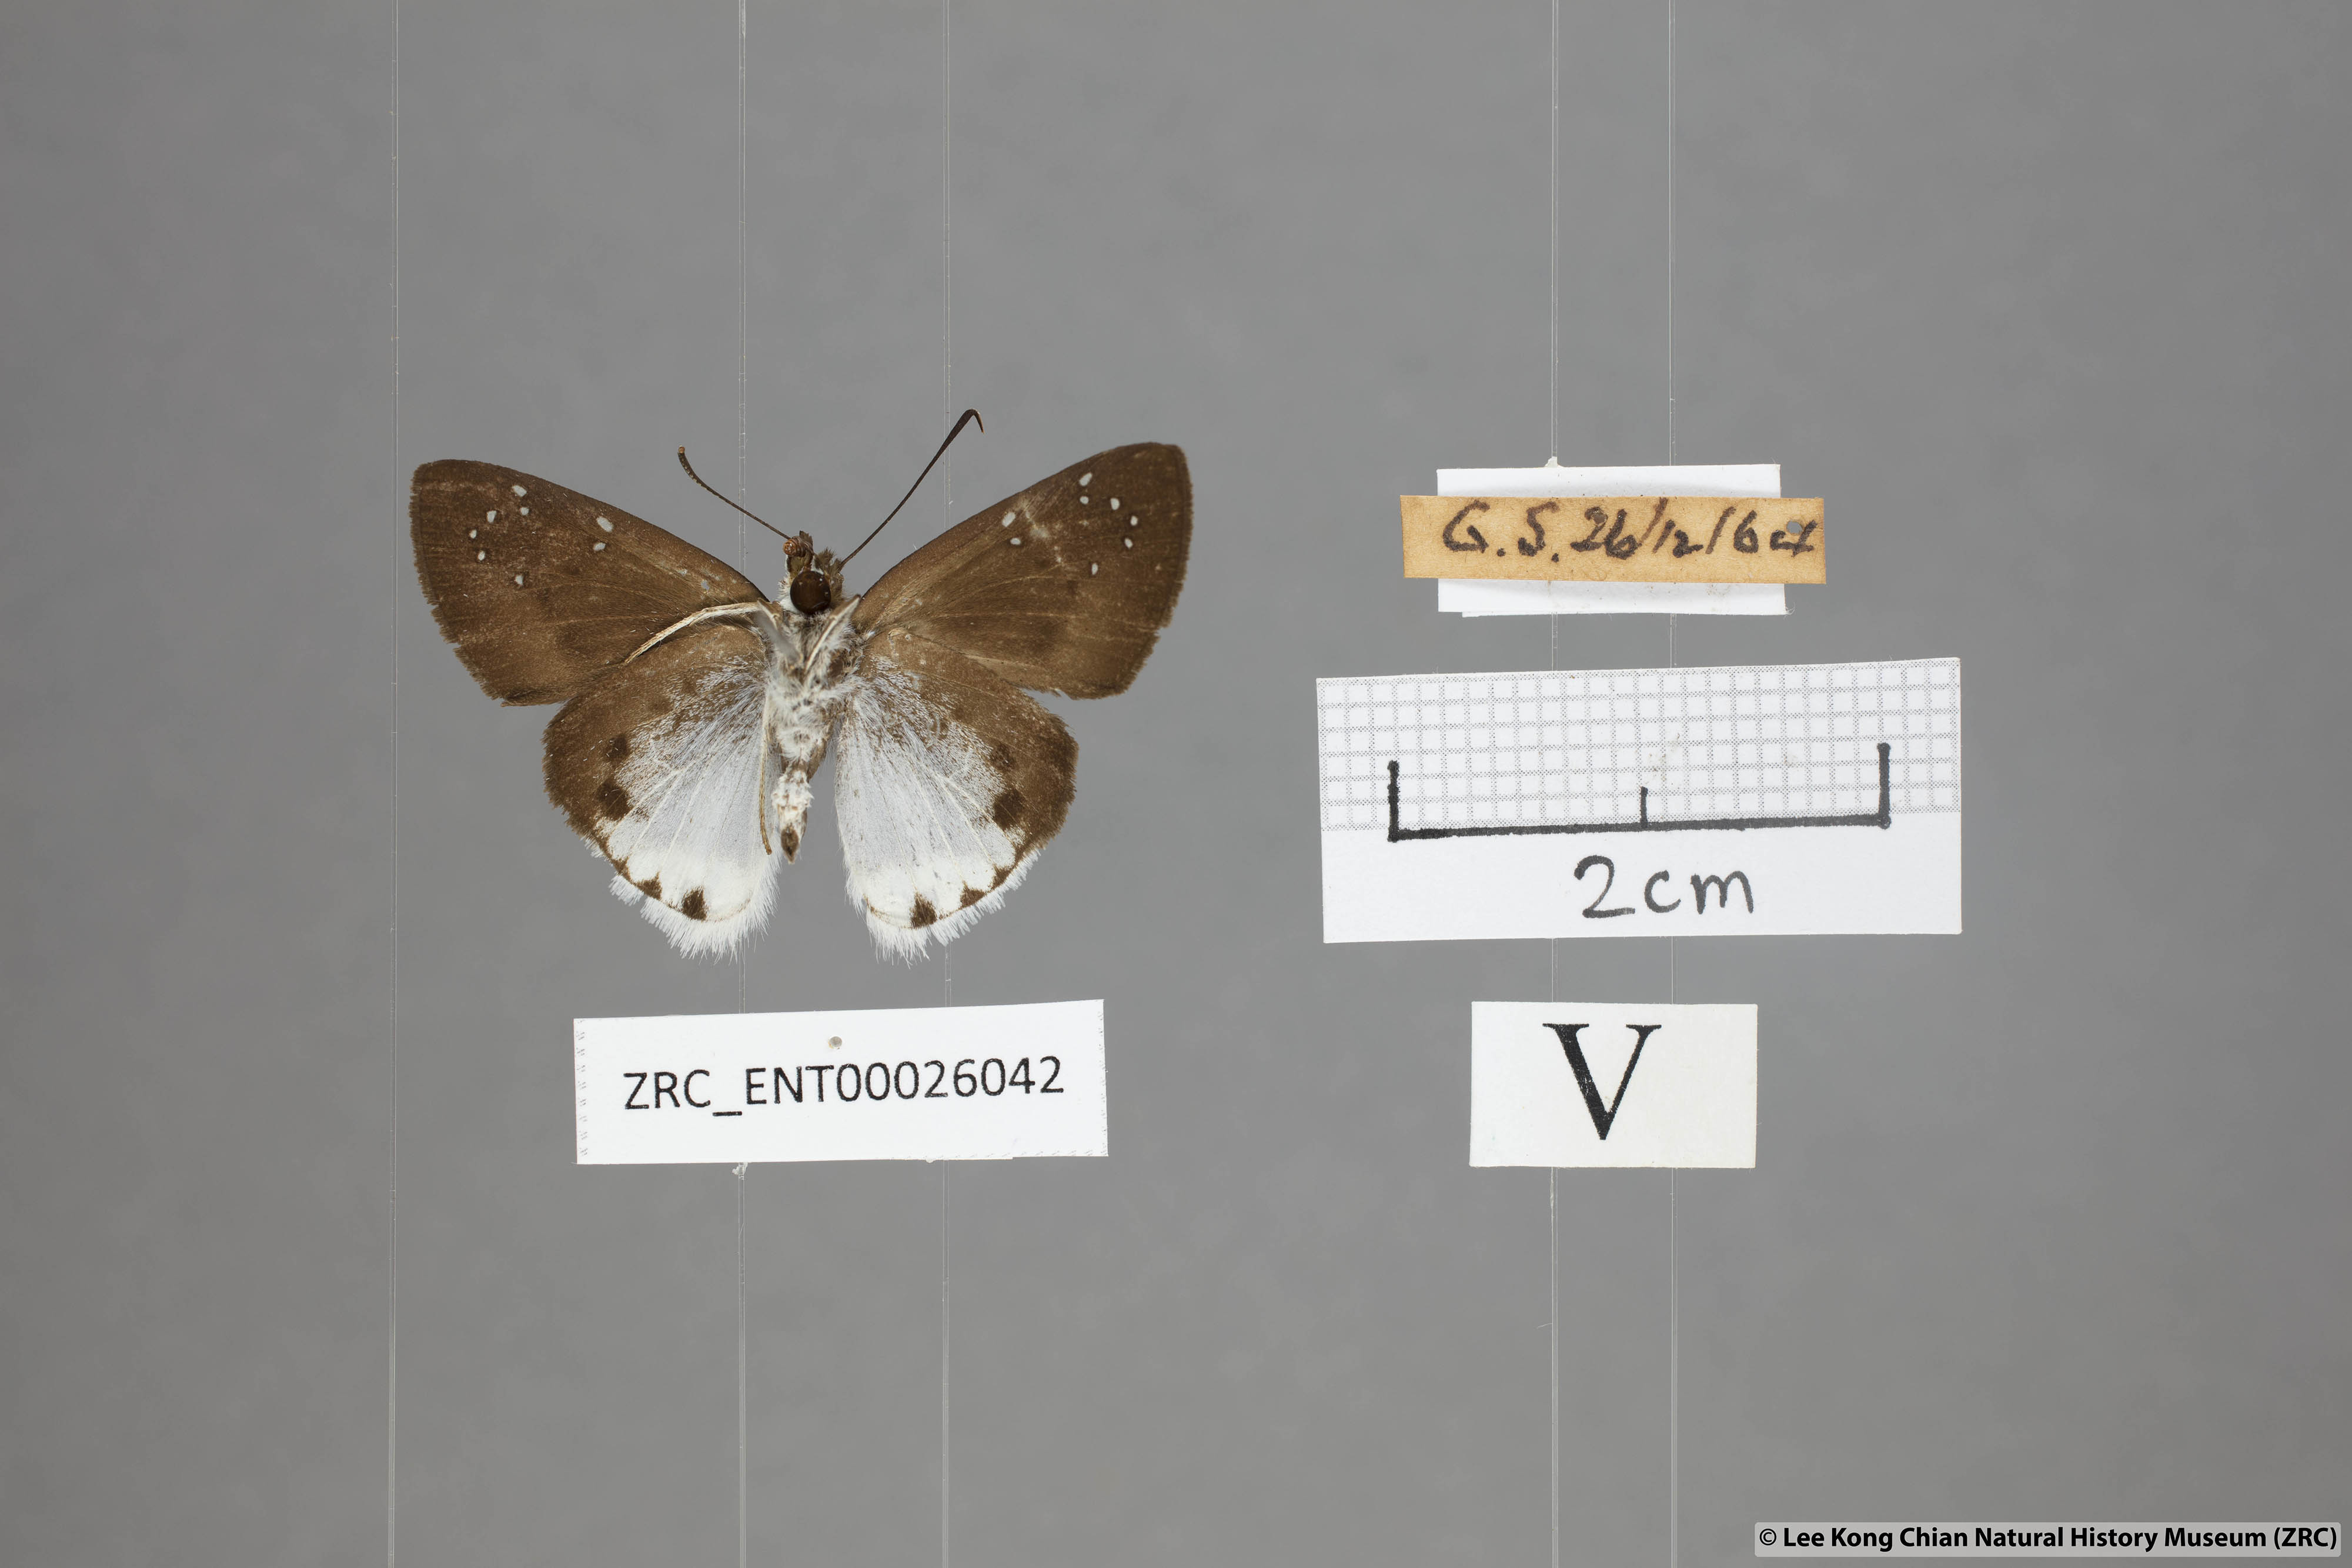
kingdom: Animalia
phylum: Arthropoda
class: Insecta
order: Lepidoptera
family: Hesperiidae
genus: Tagiades
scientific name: Tagiades toba
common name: Different-spotted snow flat
